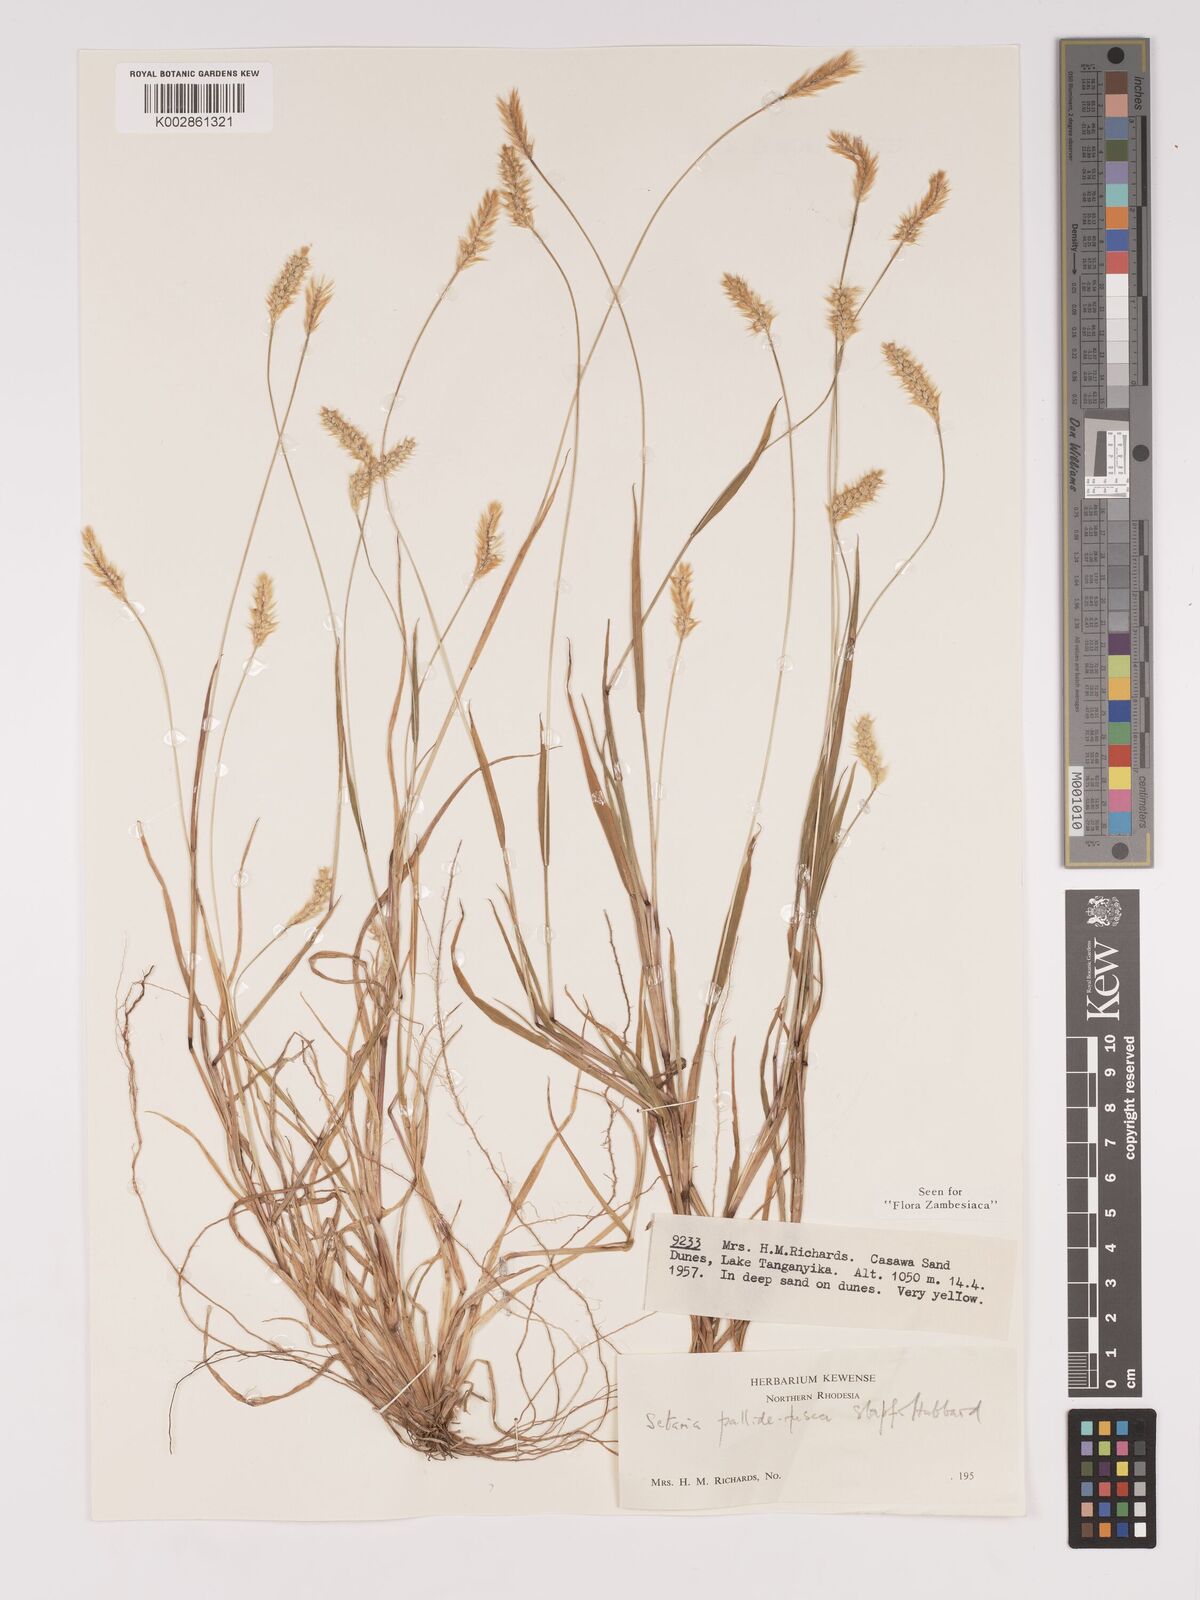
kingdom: Plantae
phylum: Tracheophyta
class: Liliopsida
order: Poales
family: Poaceae
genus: Setaria
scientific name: Setaria pumila
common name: Yellow bristle-grass
